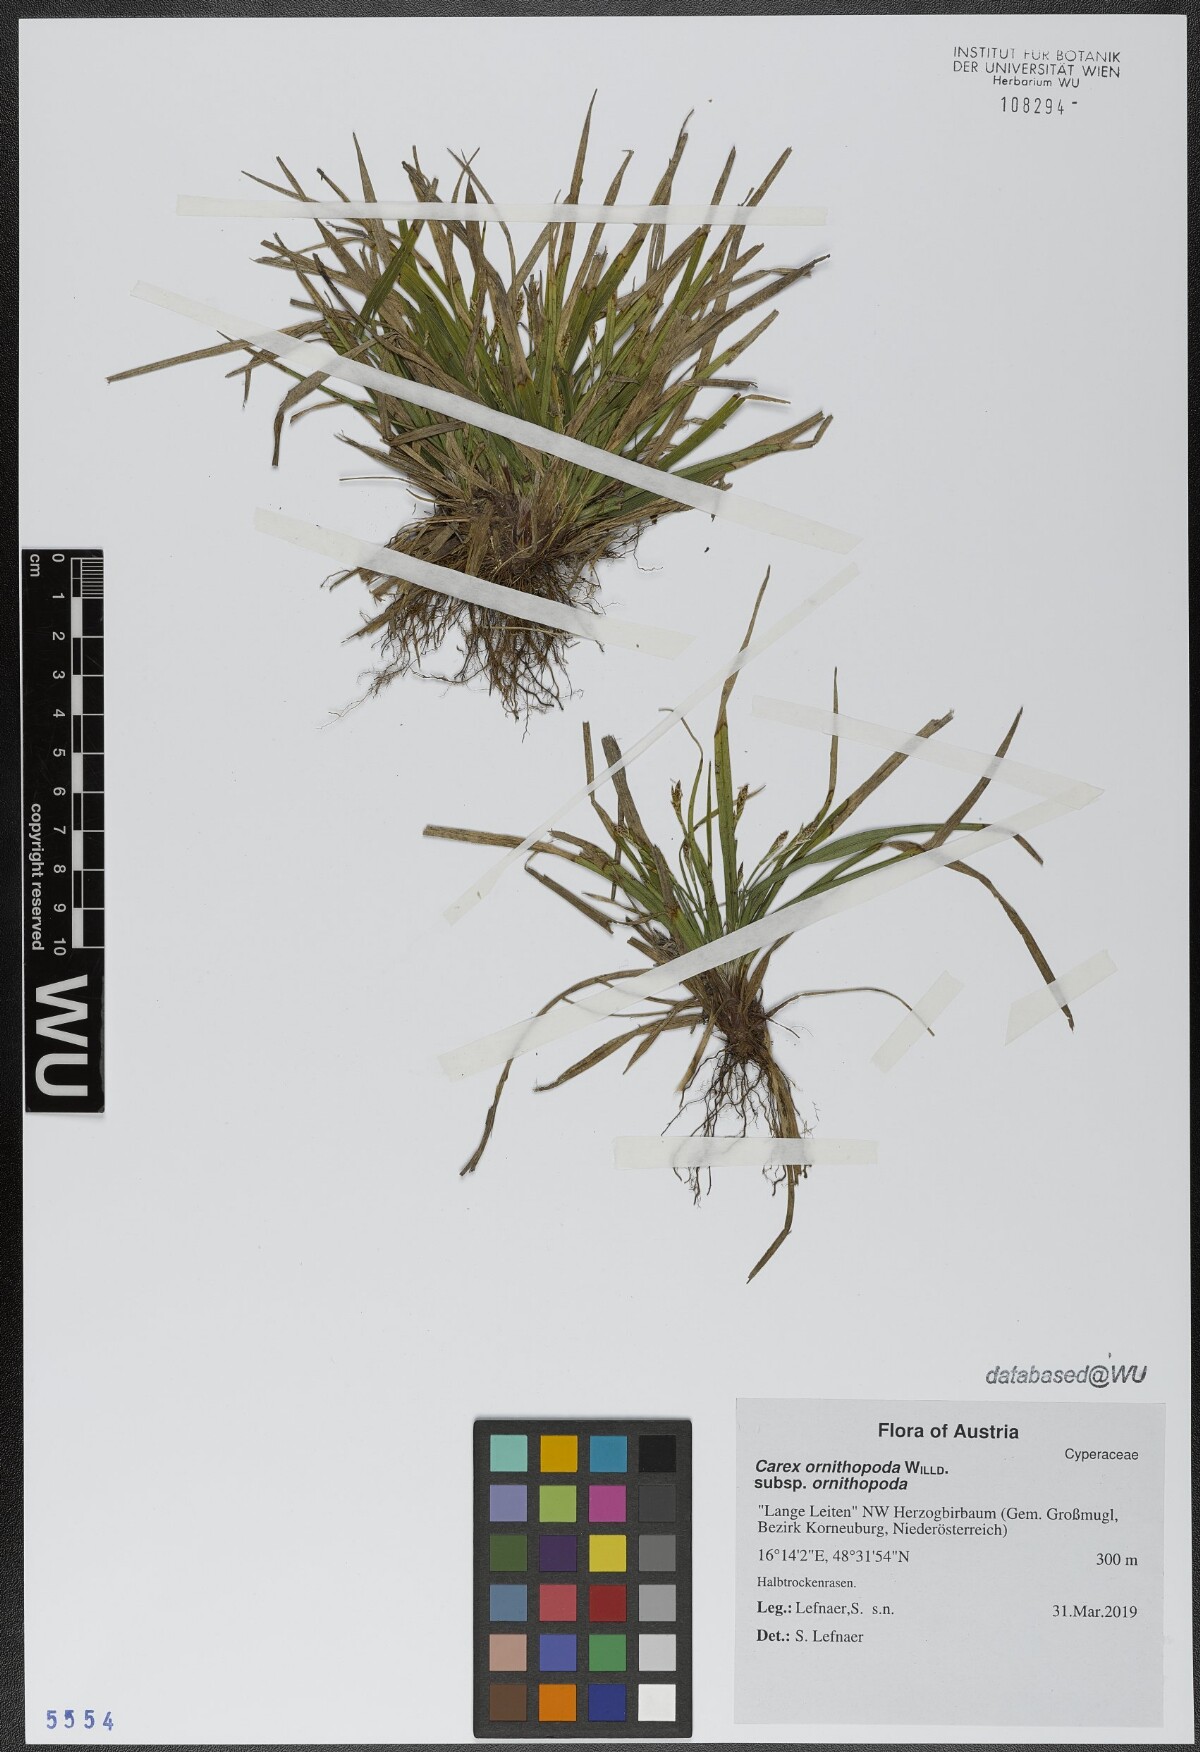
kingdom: Plantae
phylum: Tracheophyta
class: Liliopsida
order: Poales
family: Cyperaceae
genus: Carex
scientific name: Carex ornithopoda
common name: Bird's-foot sedge
